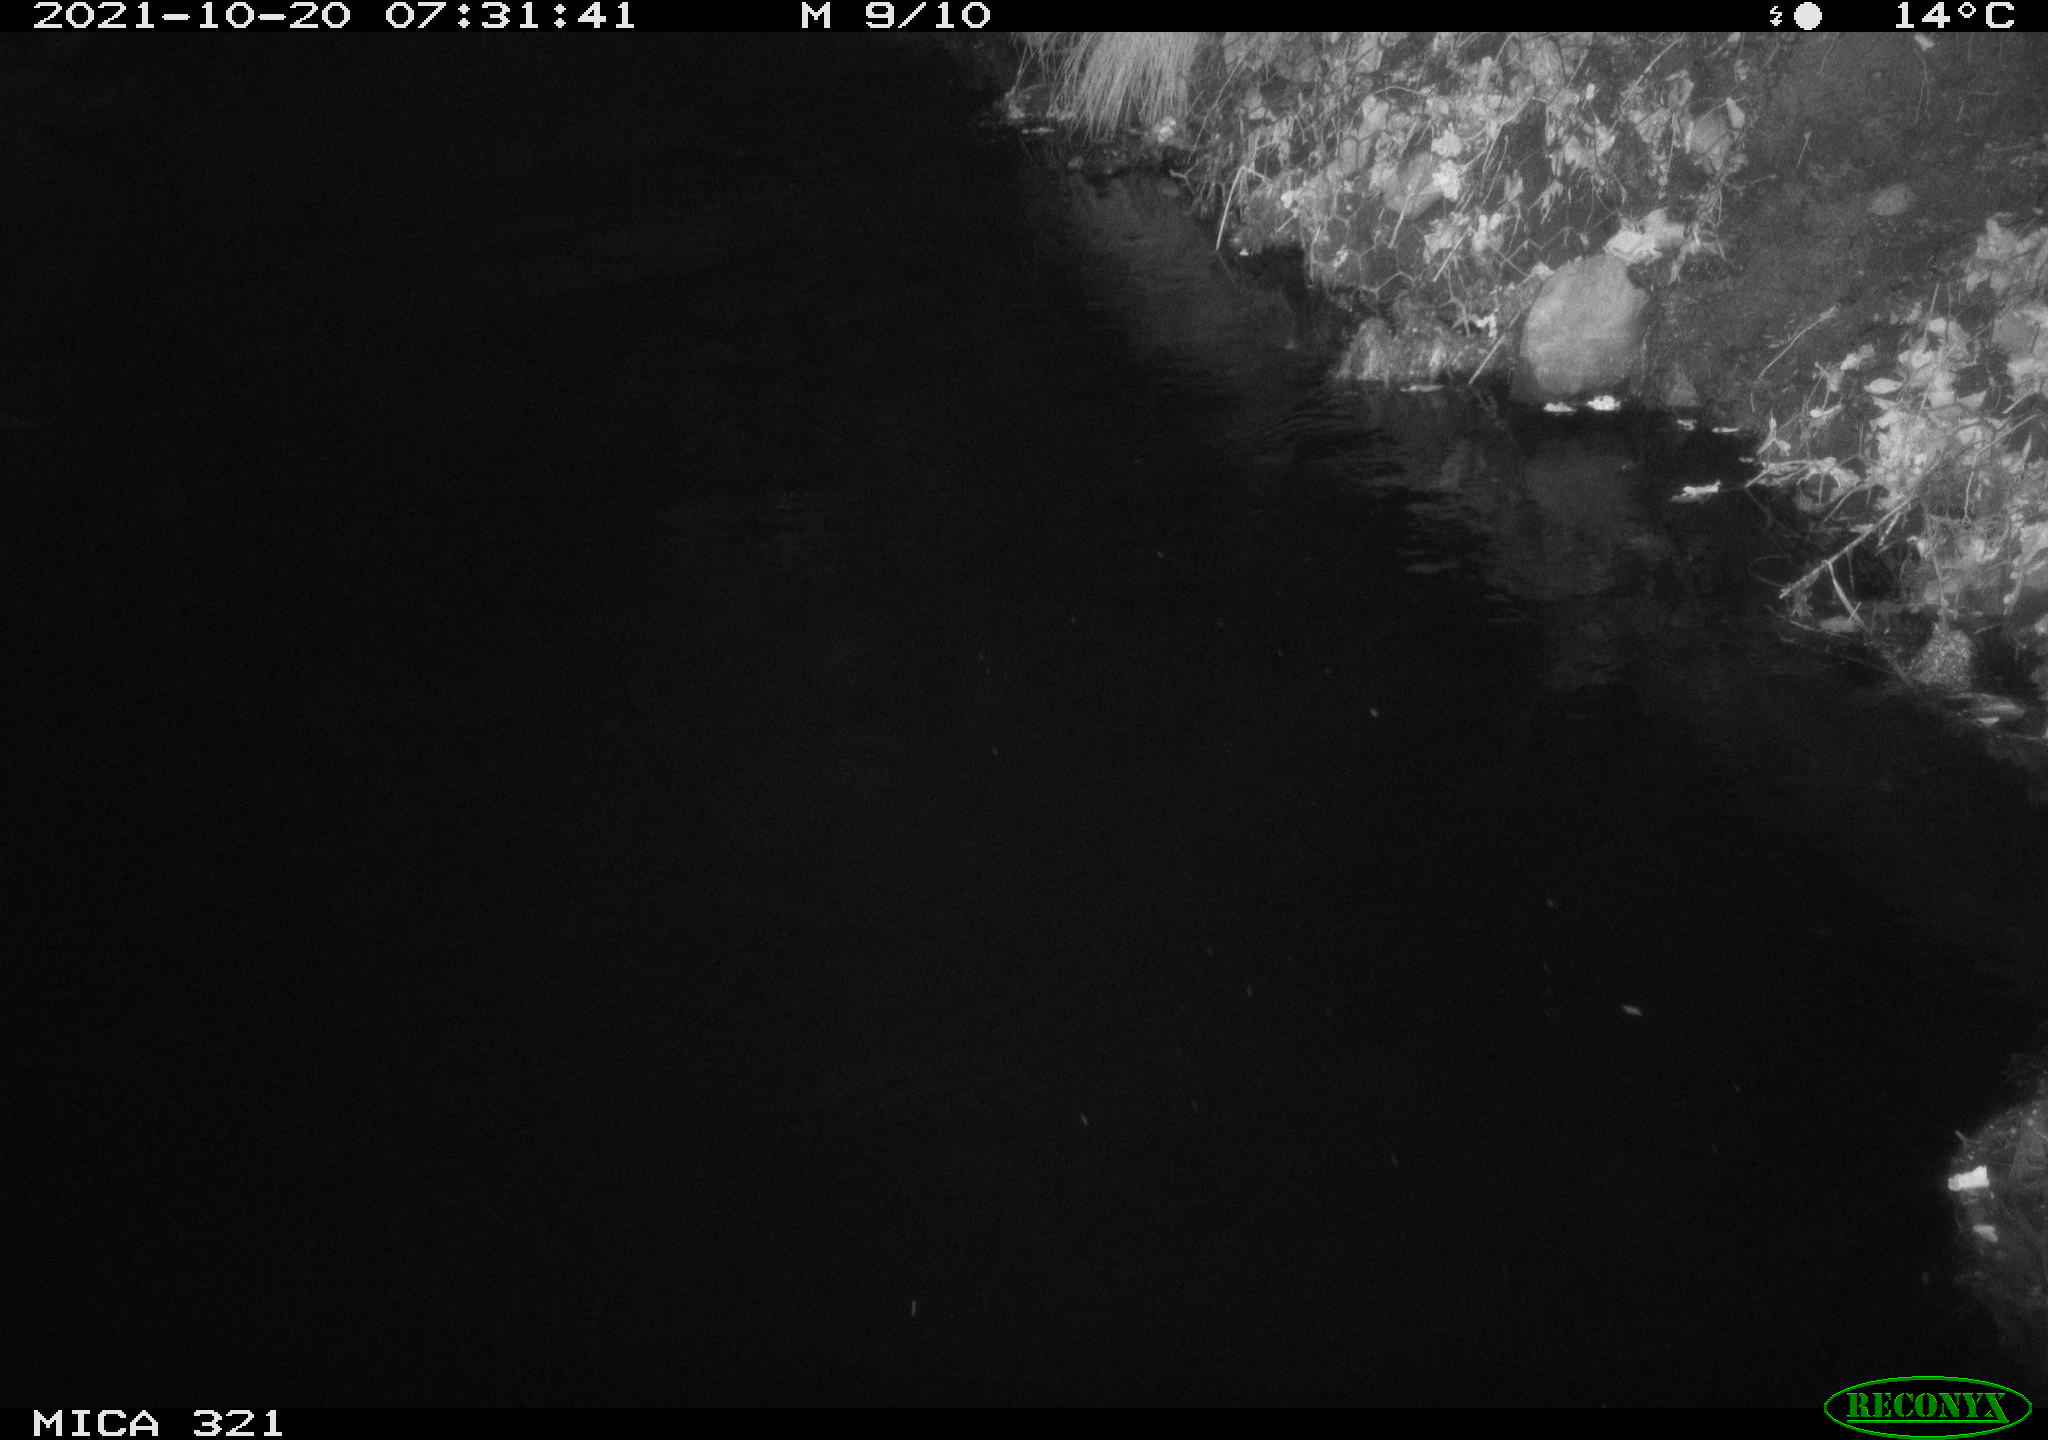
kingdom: Animalia
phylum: Chordata
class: Aves
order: Anseriformes
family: Anatidae
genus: Anas
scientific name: Anas platyrhynchos
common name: Mallard
